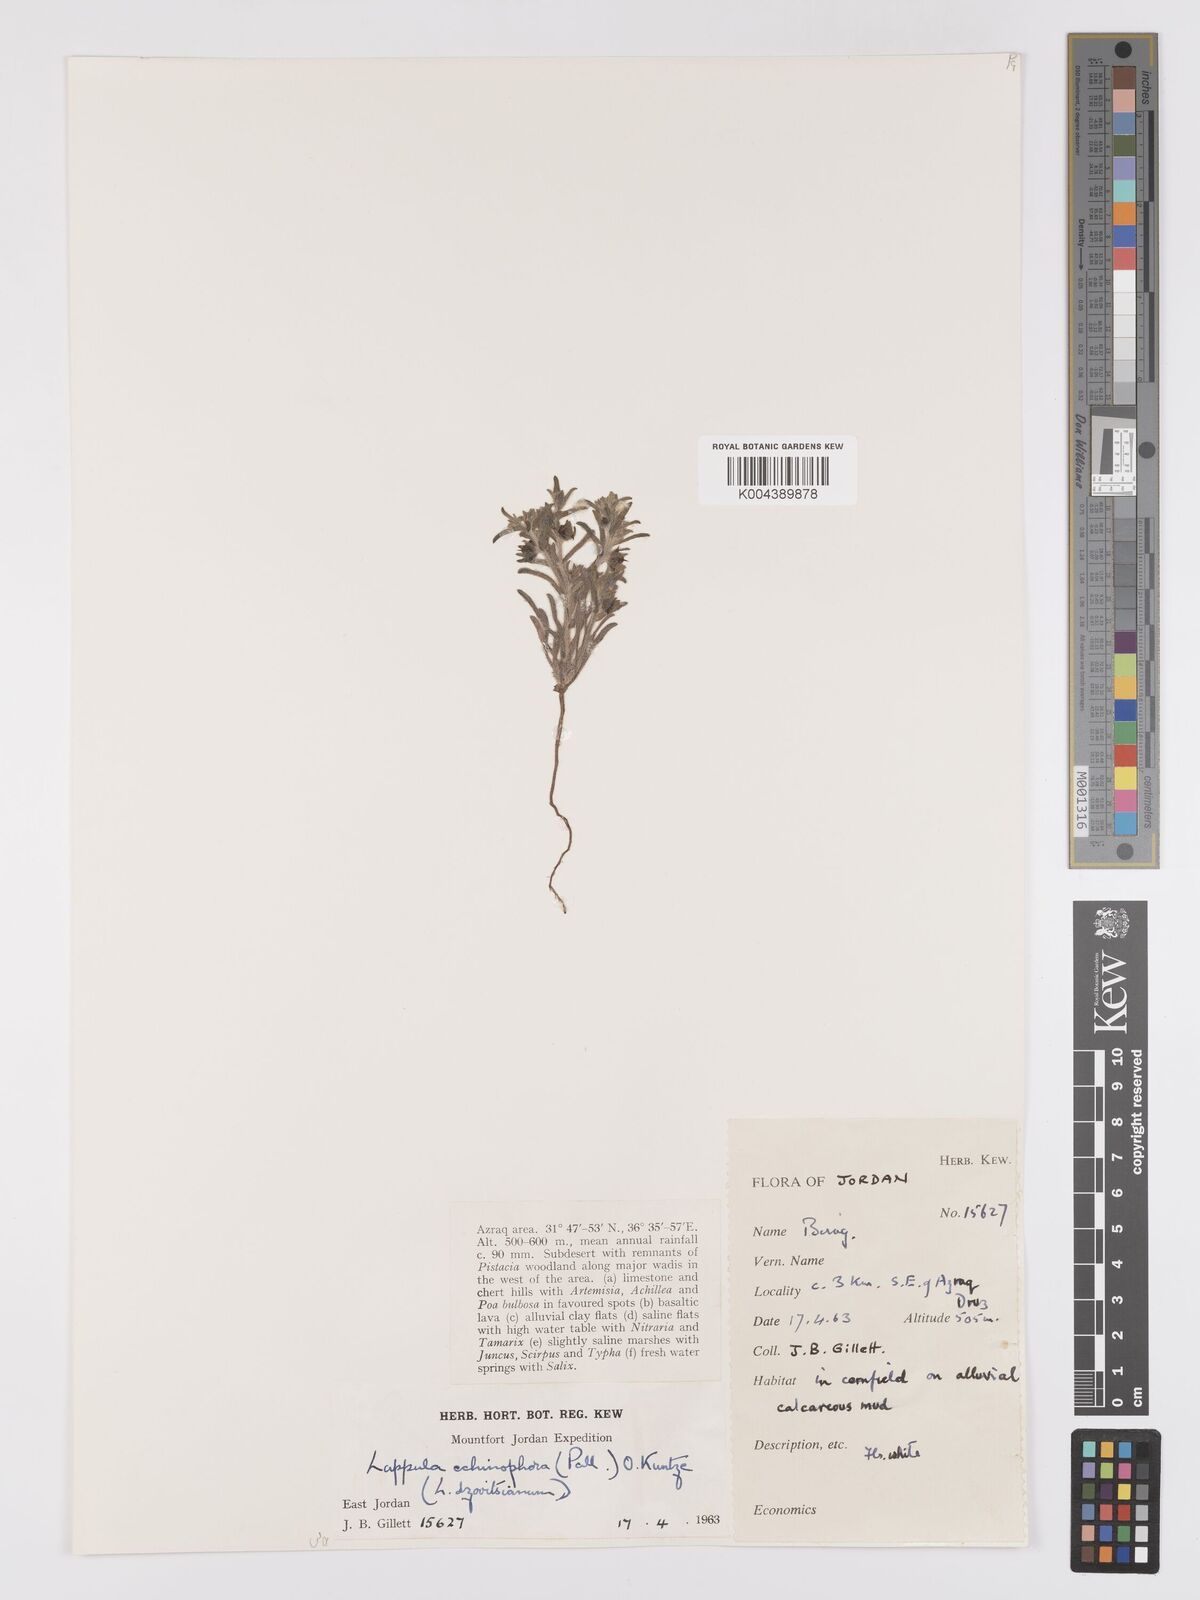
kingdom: Plantae
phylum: Tracheophyta
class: Magnoliopsida
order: Boraginales
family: Boraginaceae
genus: Heterocaryum
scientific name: Heterocaryum echinophorum
